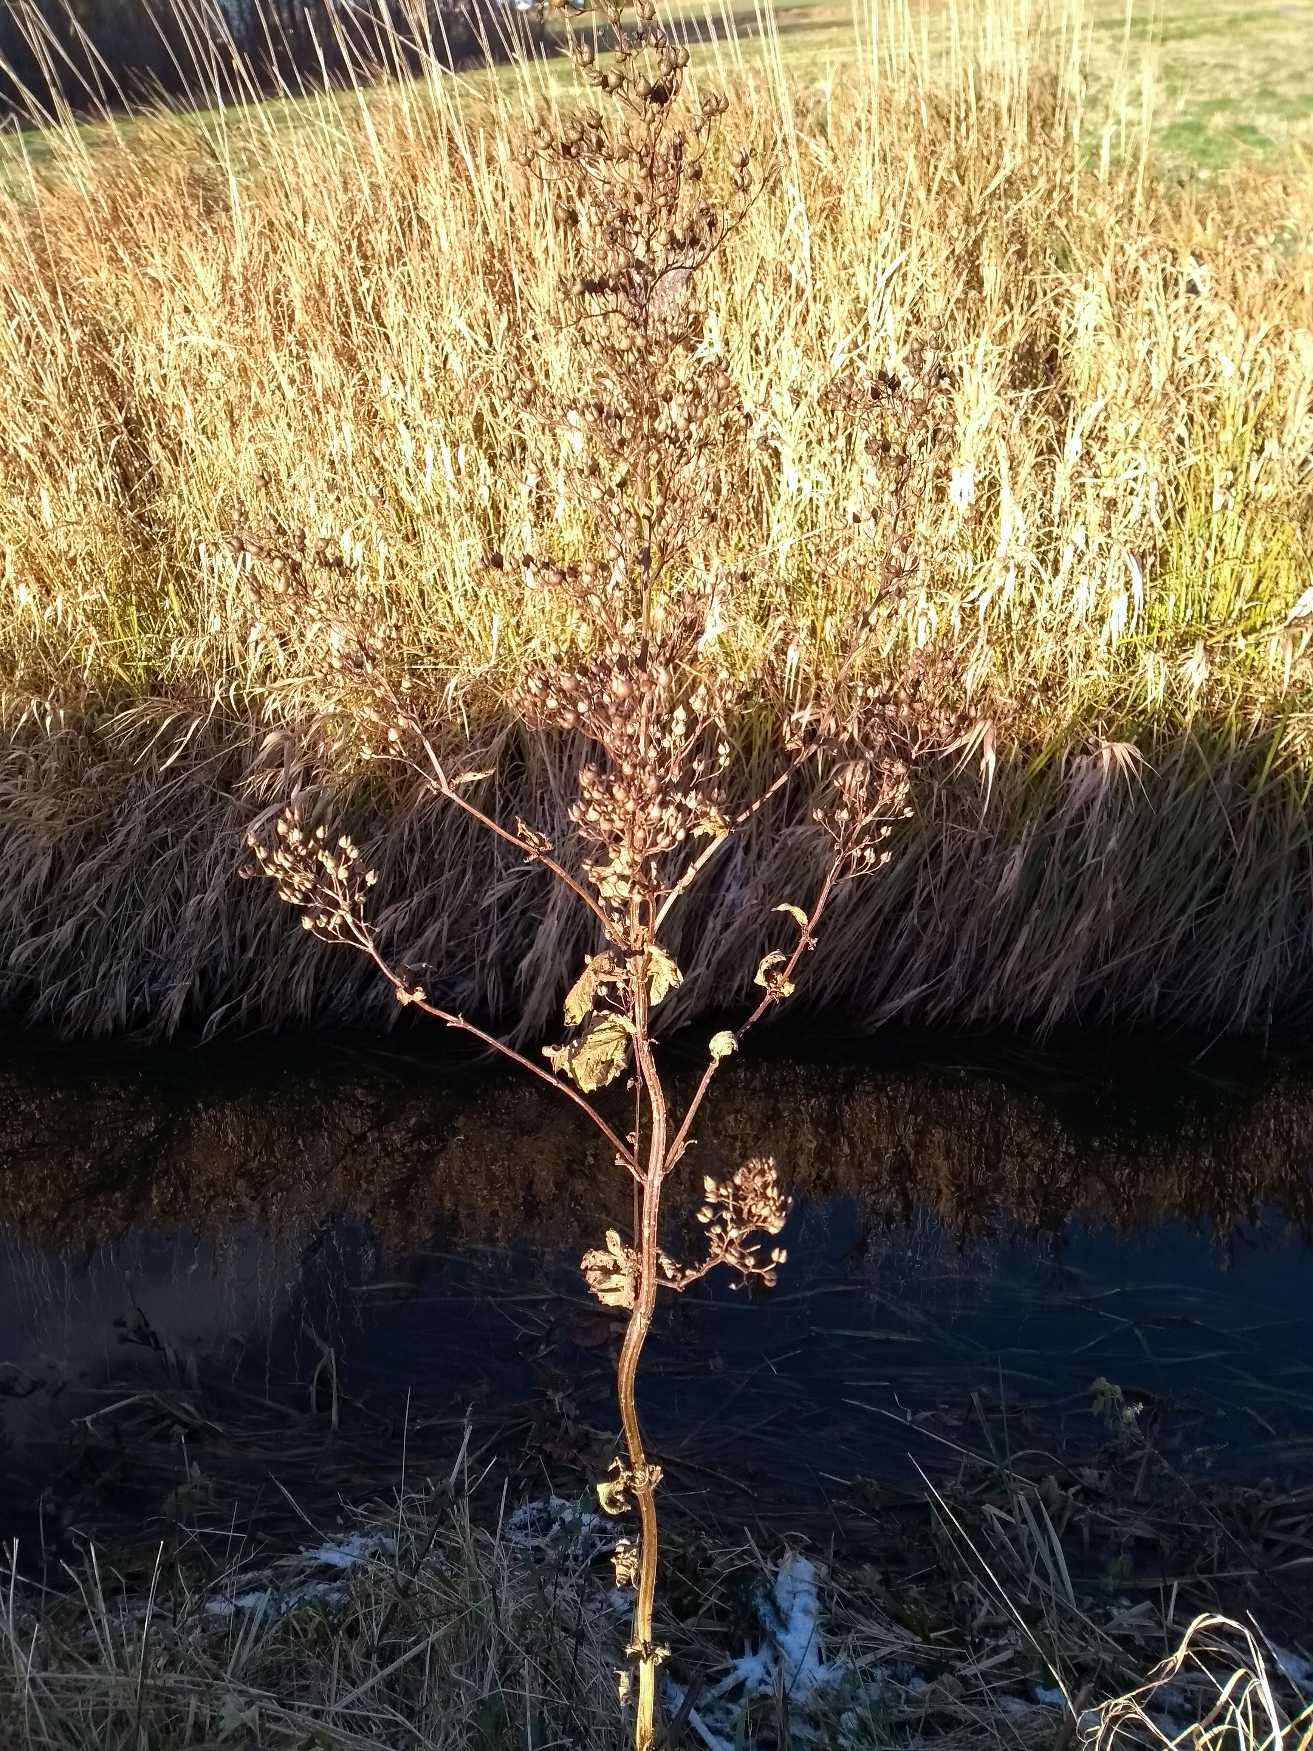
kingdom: Plantae
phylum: Tracheophyta
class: Magnoliopsida
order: Lamiales
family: Scrophulariaceae
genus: Scrophularia
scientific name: Scrophularia nodosa
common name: Knoldet brunrod
